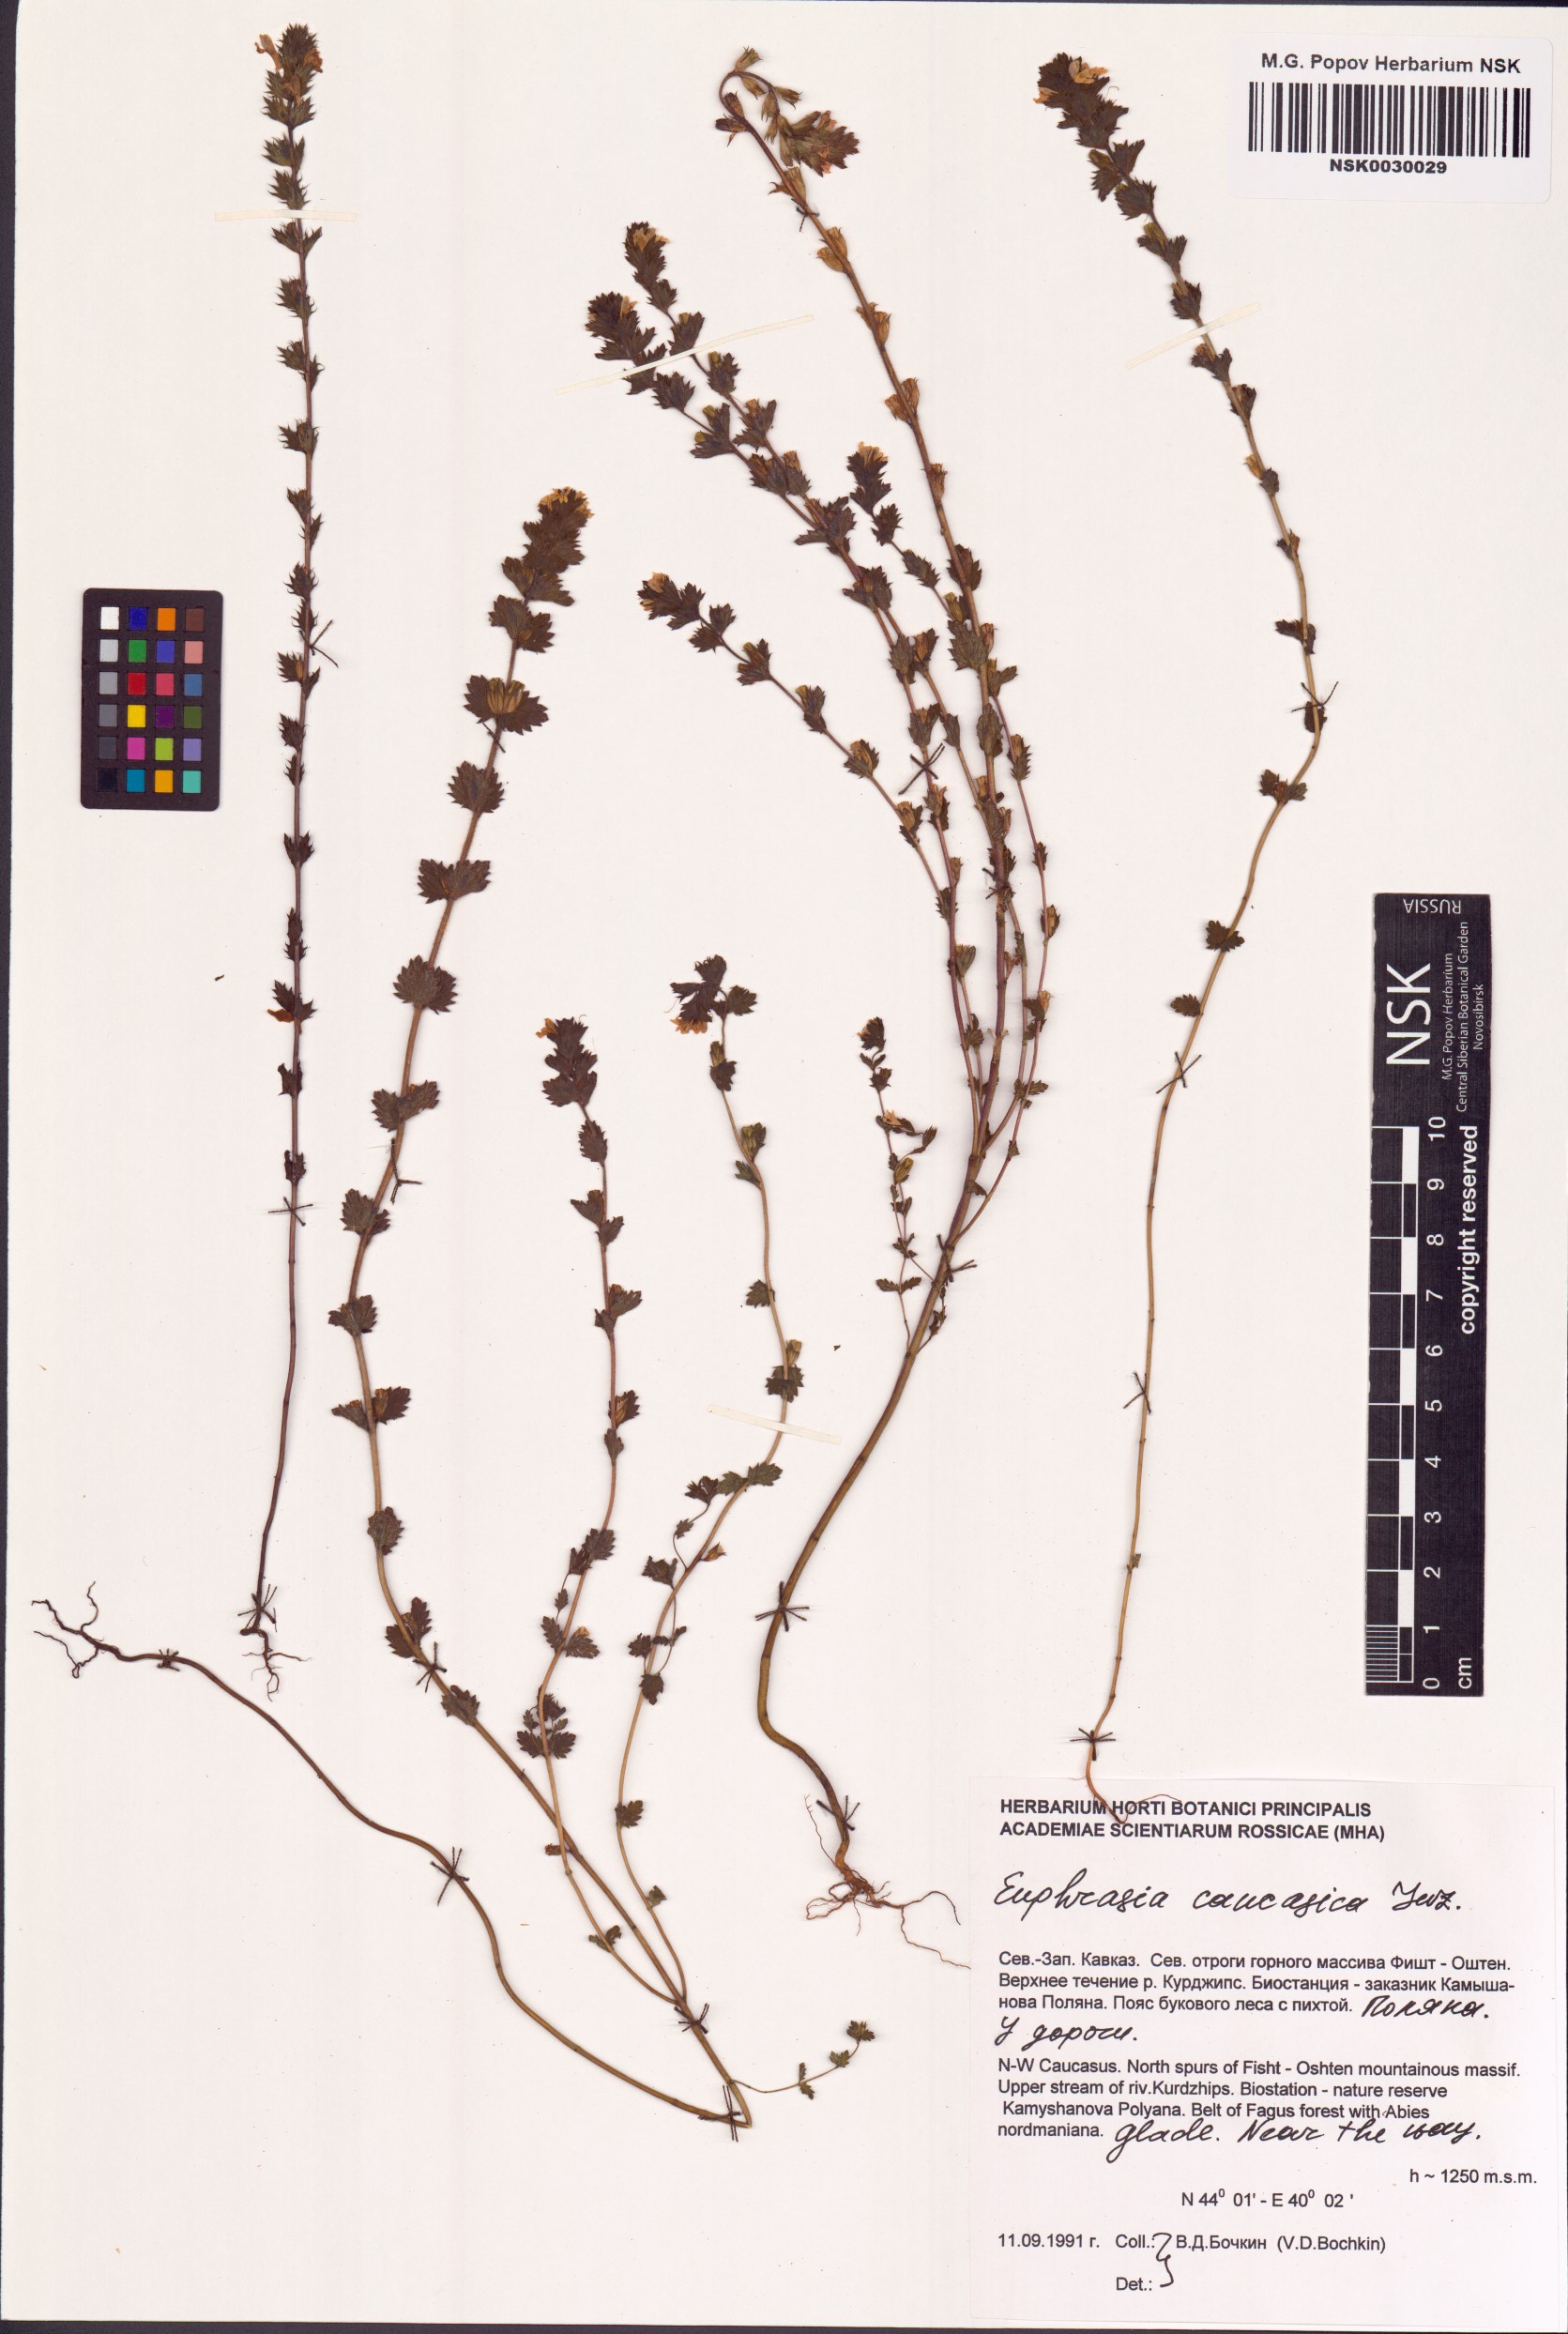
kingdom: Plantae
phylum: Tracheophyta
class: Magnoliopsida
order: Lamiales
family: Orobanchaceae
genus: Euphrasia
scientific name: Euphrasia pectinata
